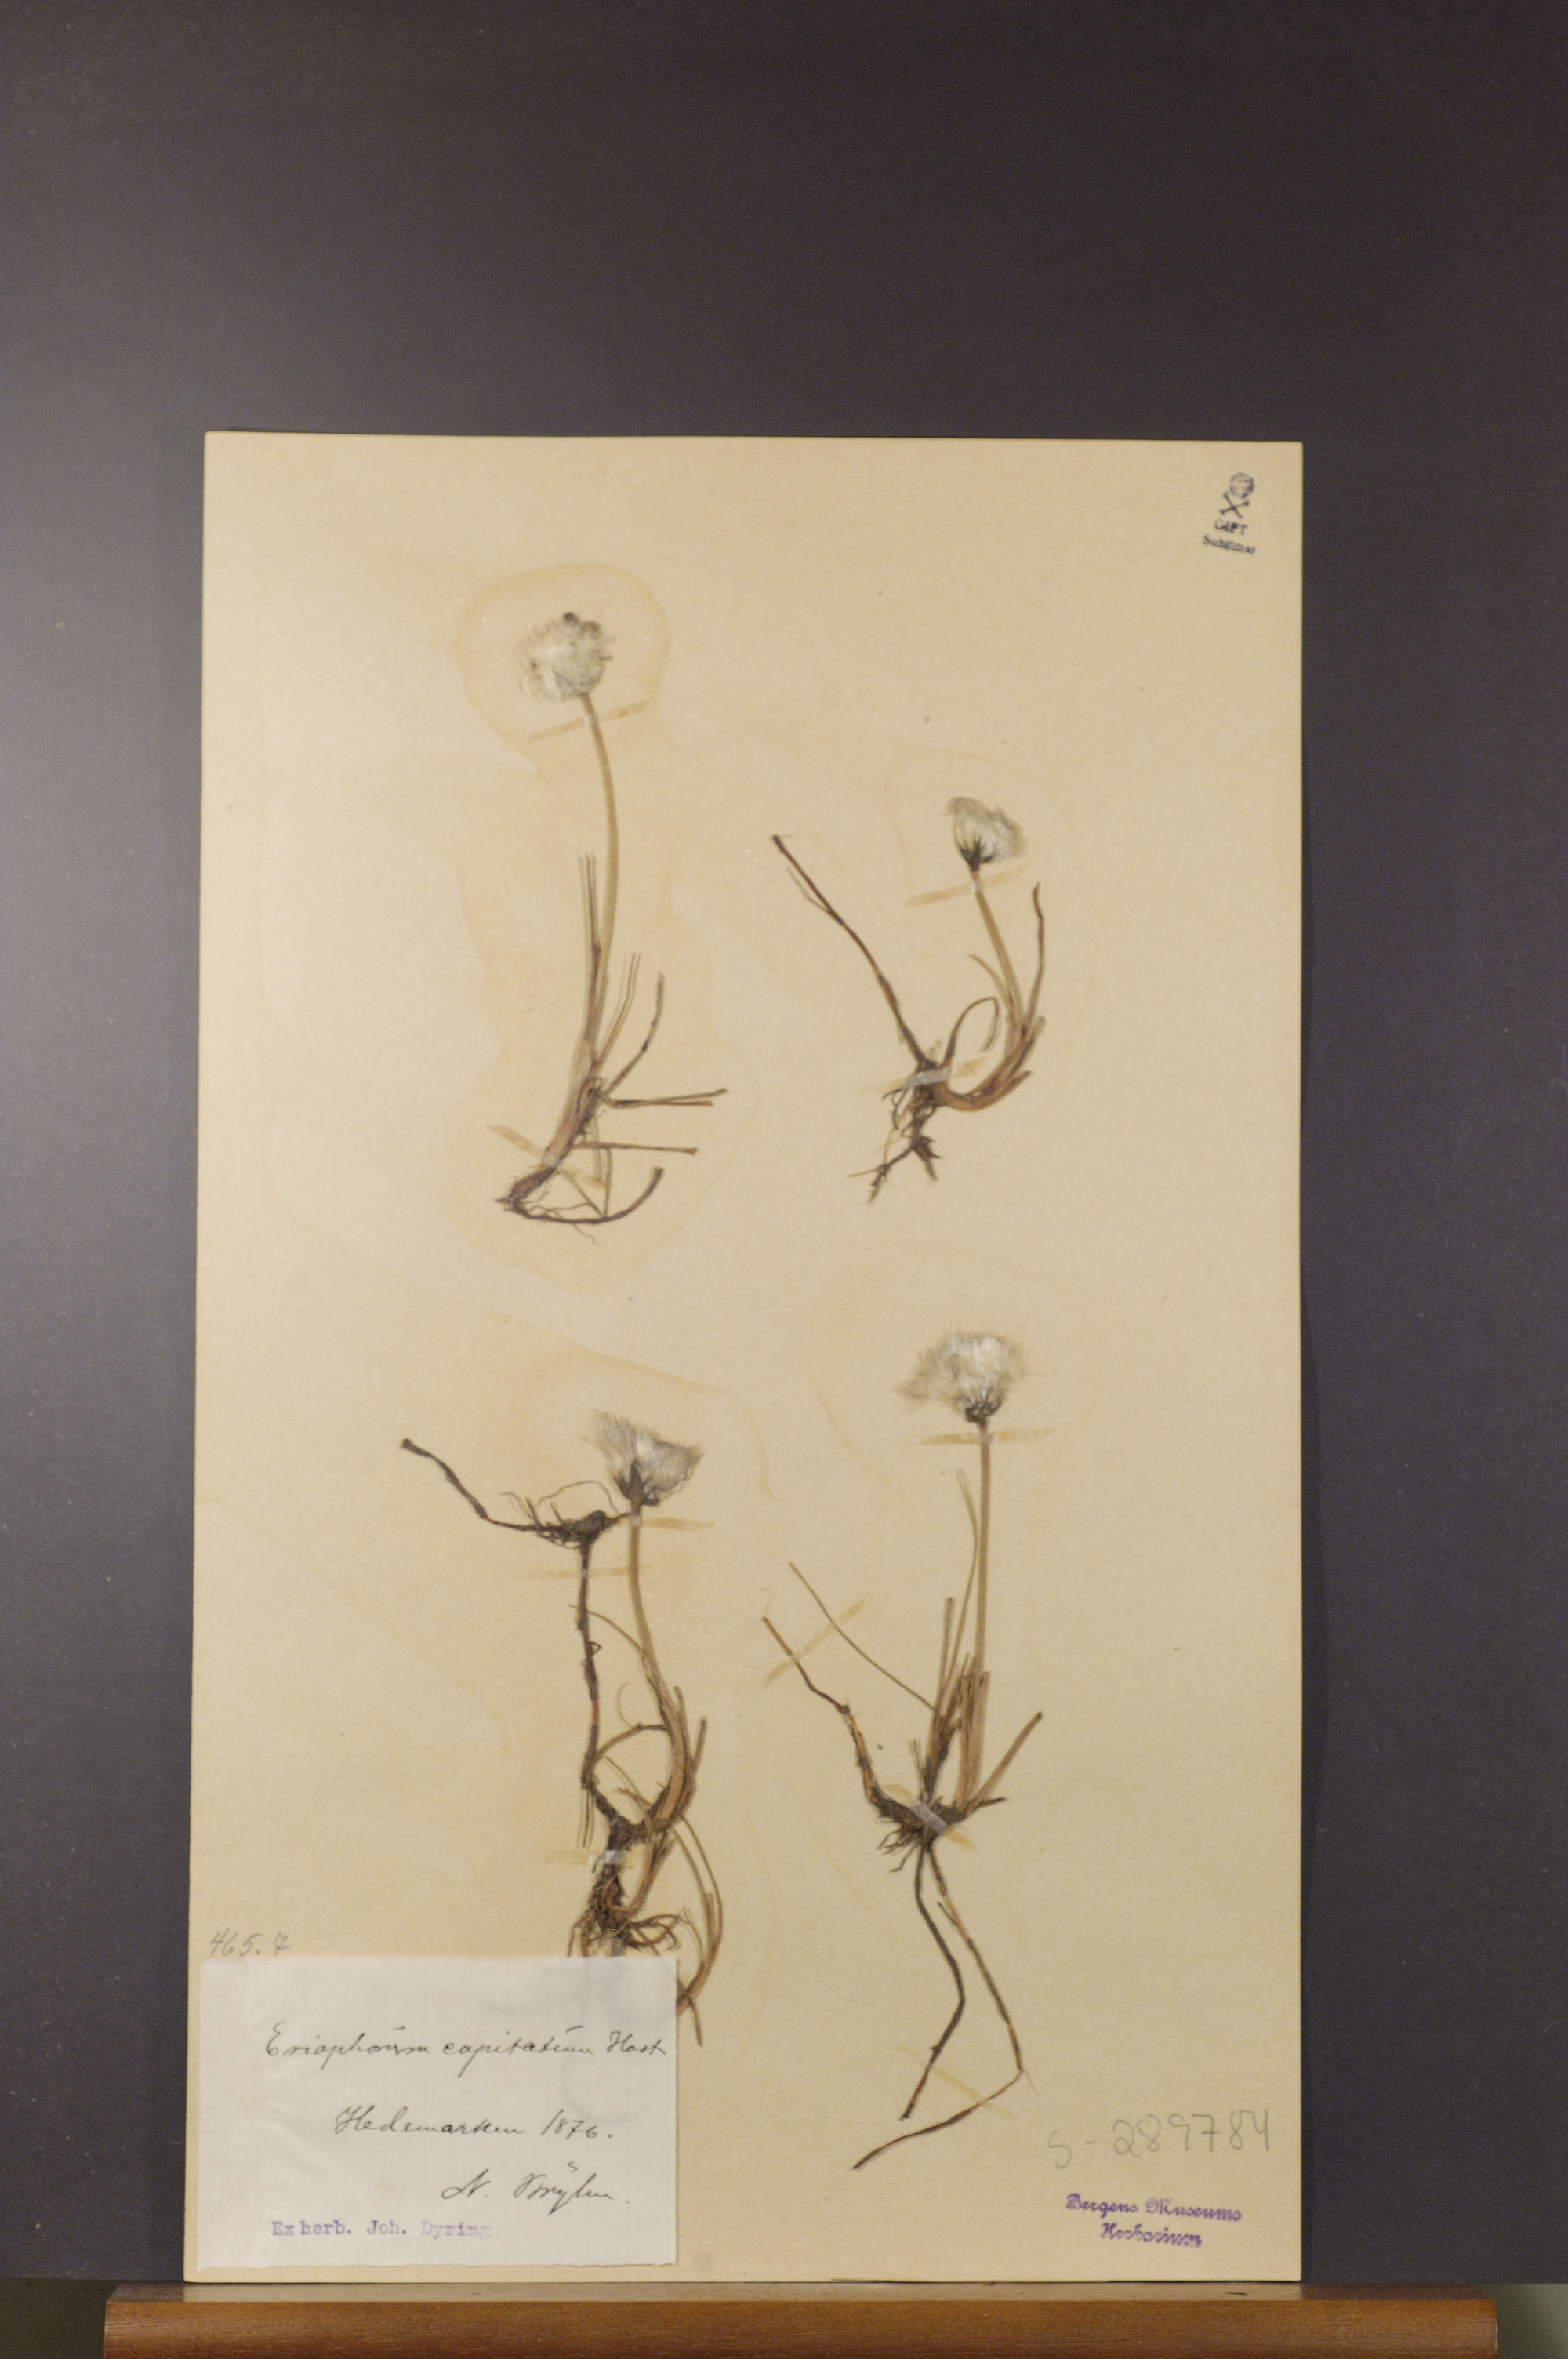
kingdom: Plantae
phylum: Tracheophyta
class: Liliopsida
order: Poales
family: Cyperaceae
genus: Eriophorum
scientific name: Eriophorum scheuchzeri
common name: Scheuchzer's cottongrass
